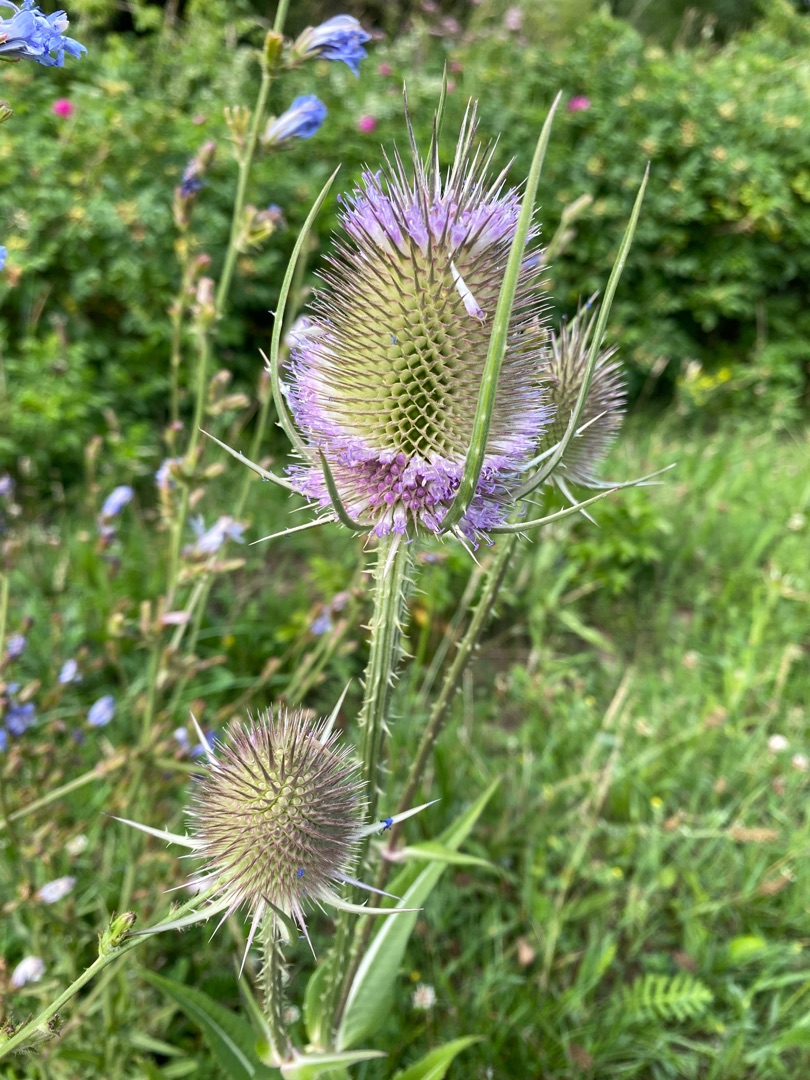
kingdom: Plantae
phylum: Tracheophyta
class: Magnoliopsida
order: Dipsacales
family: Caprifoliaceae
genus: Dipsacus
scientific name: Dipsacus fullonum
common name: Gærde-kartebolle
